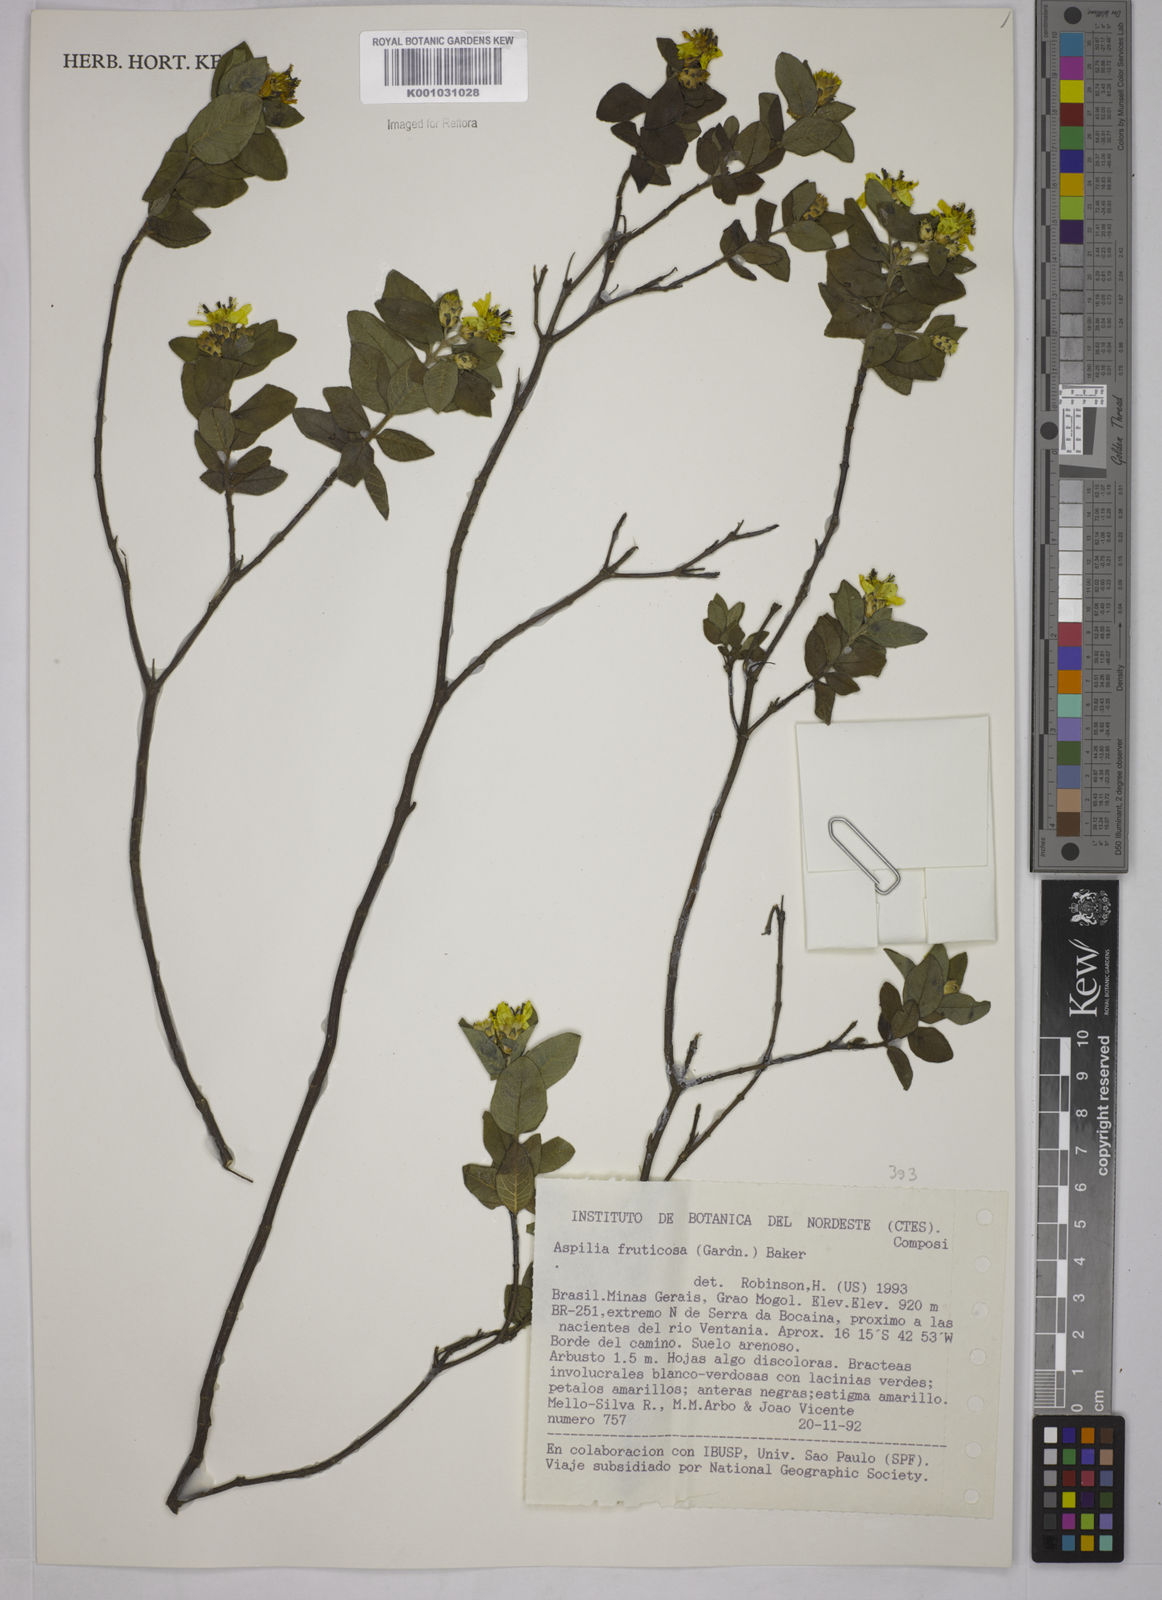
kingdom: Plantae
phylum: Tracheophyta
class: Magnoliopsida
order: Asterales
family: Asteraceae
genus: Wedelia
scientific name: Wedelia frustrata
